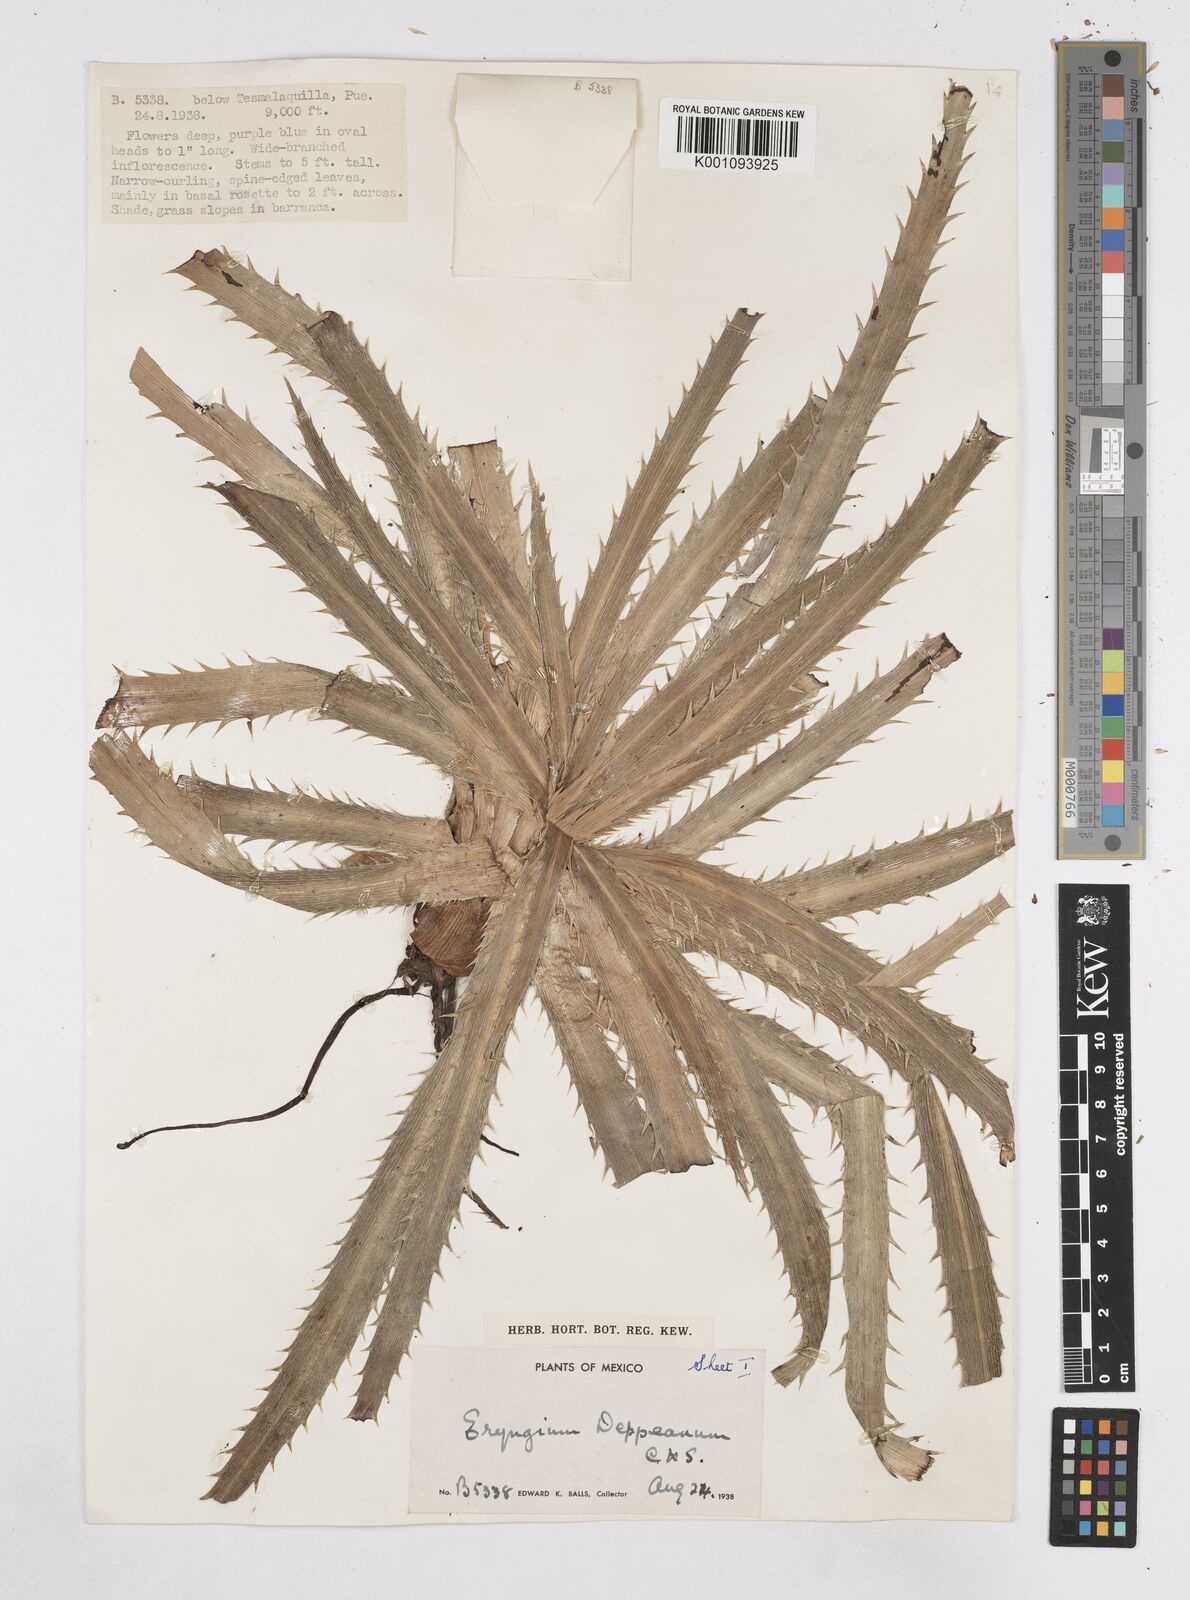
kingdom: Plantae
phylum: Tracheophyta
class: Magnoliopsida
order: Apiales
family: Apiaceae
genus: Eryngium
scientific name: Eryngium
